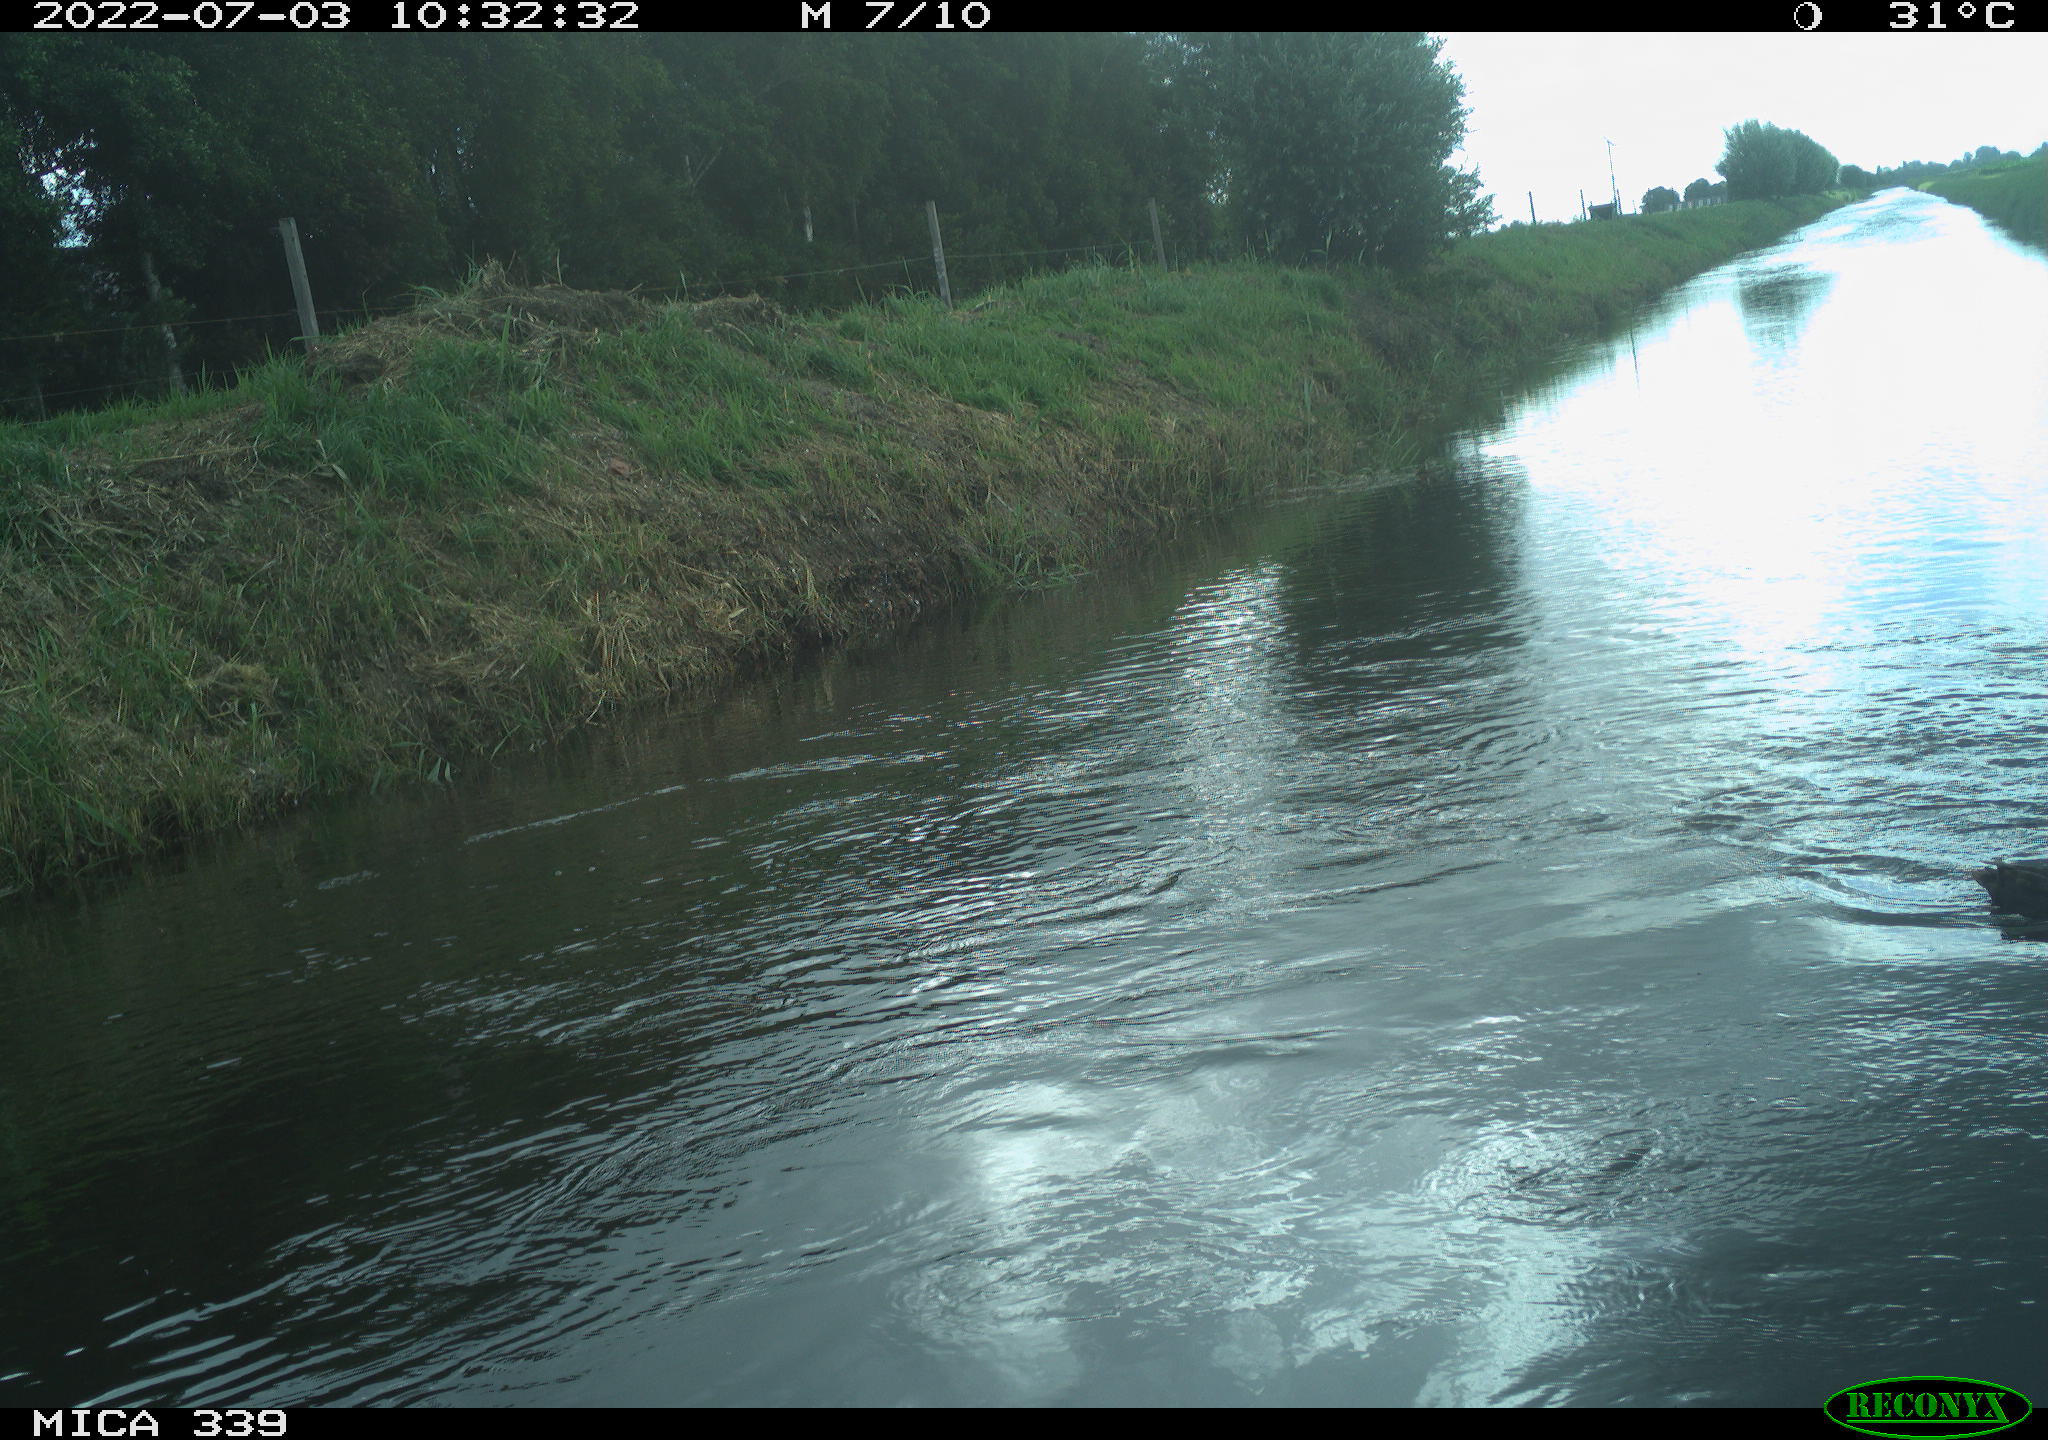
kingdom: Animalia
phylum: Chordata
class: Aves
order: Anseriformes
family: Anatidae
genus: Anas
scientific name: Anas platyrhynchos
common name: Mallard
